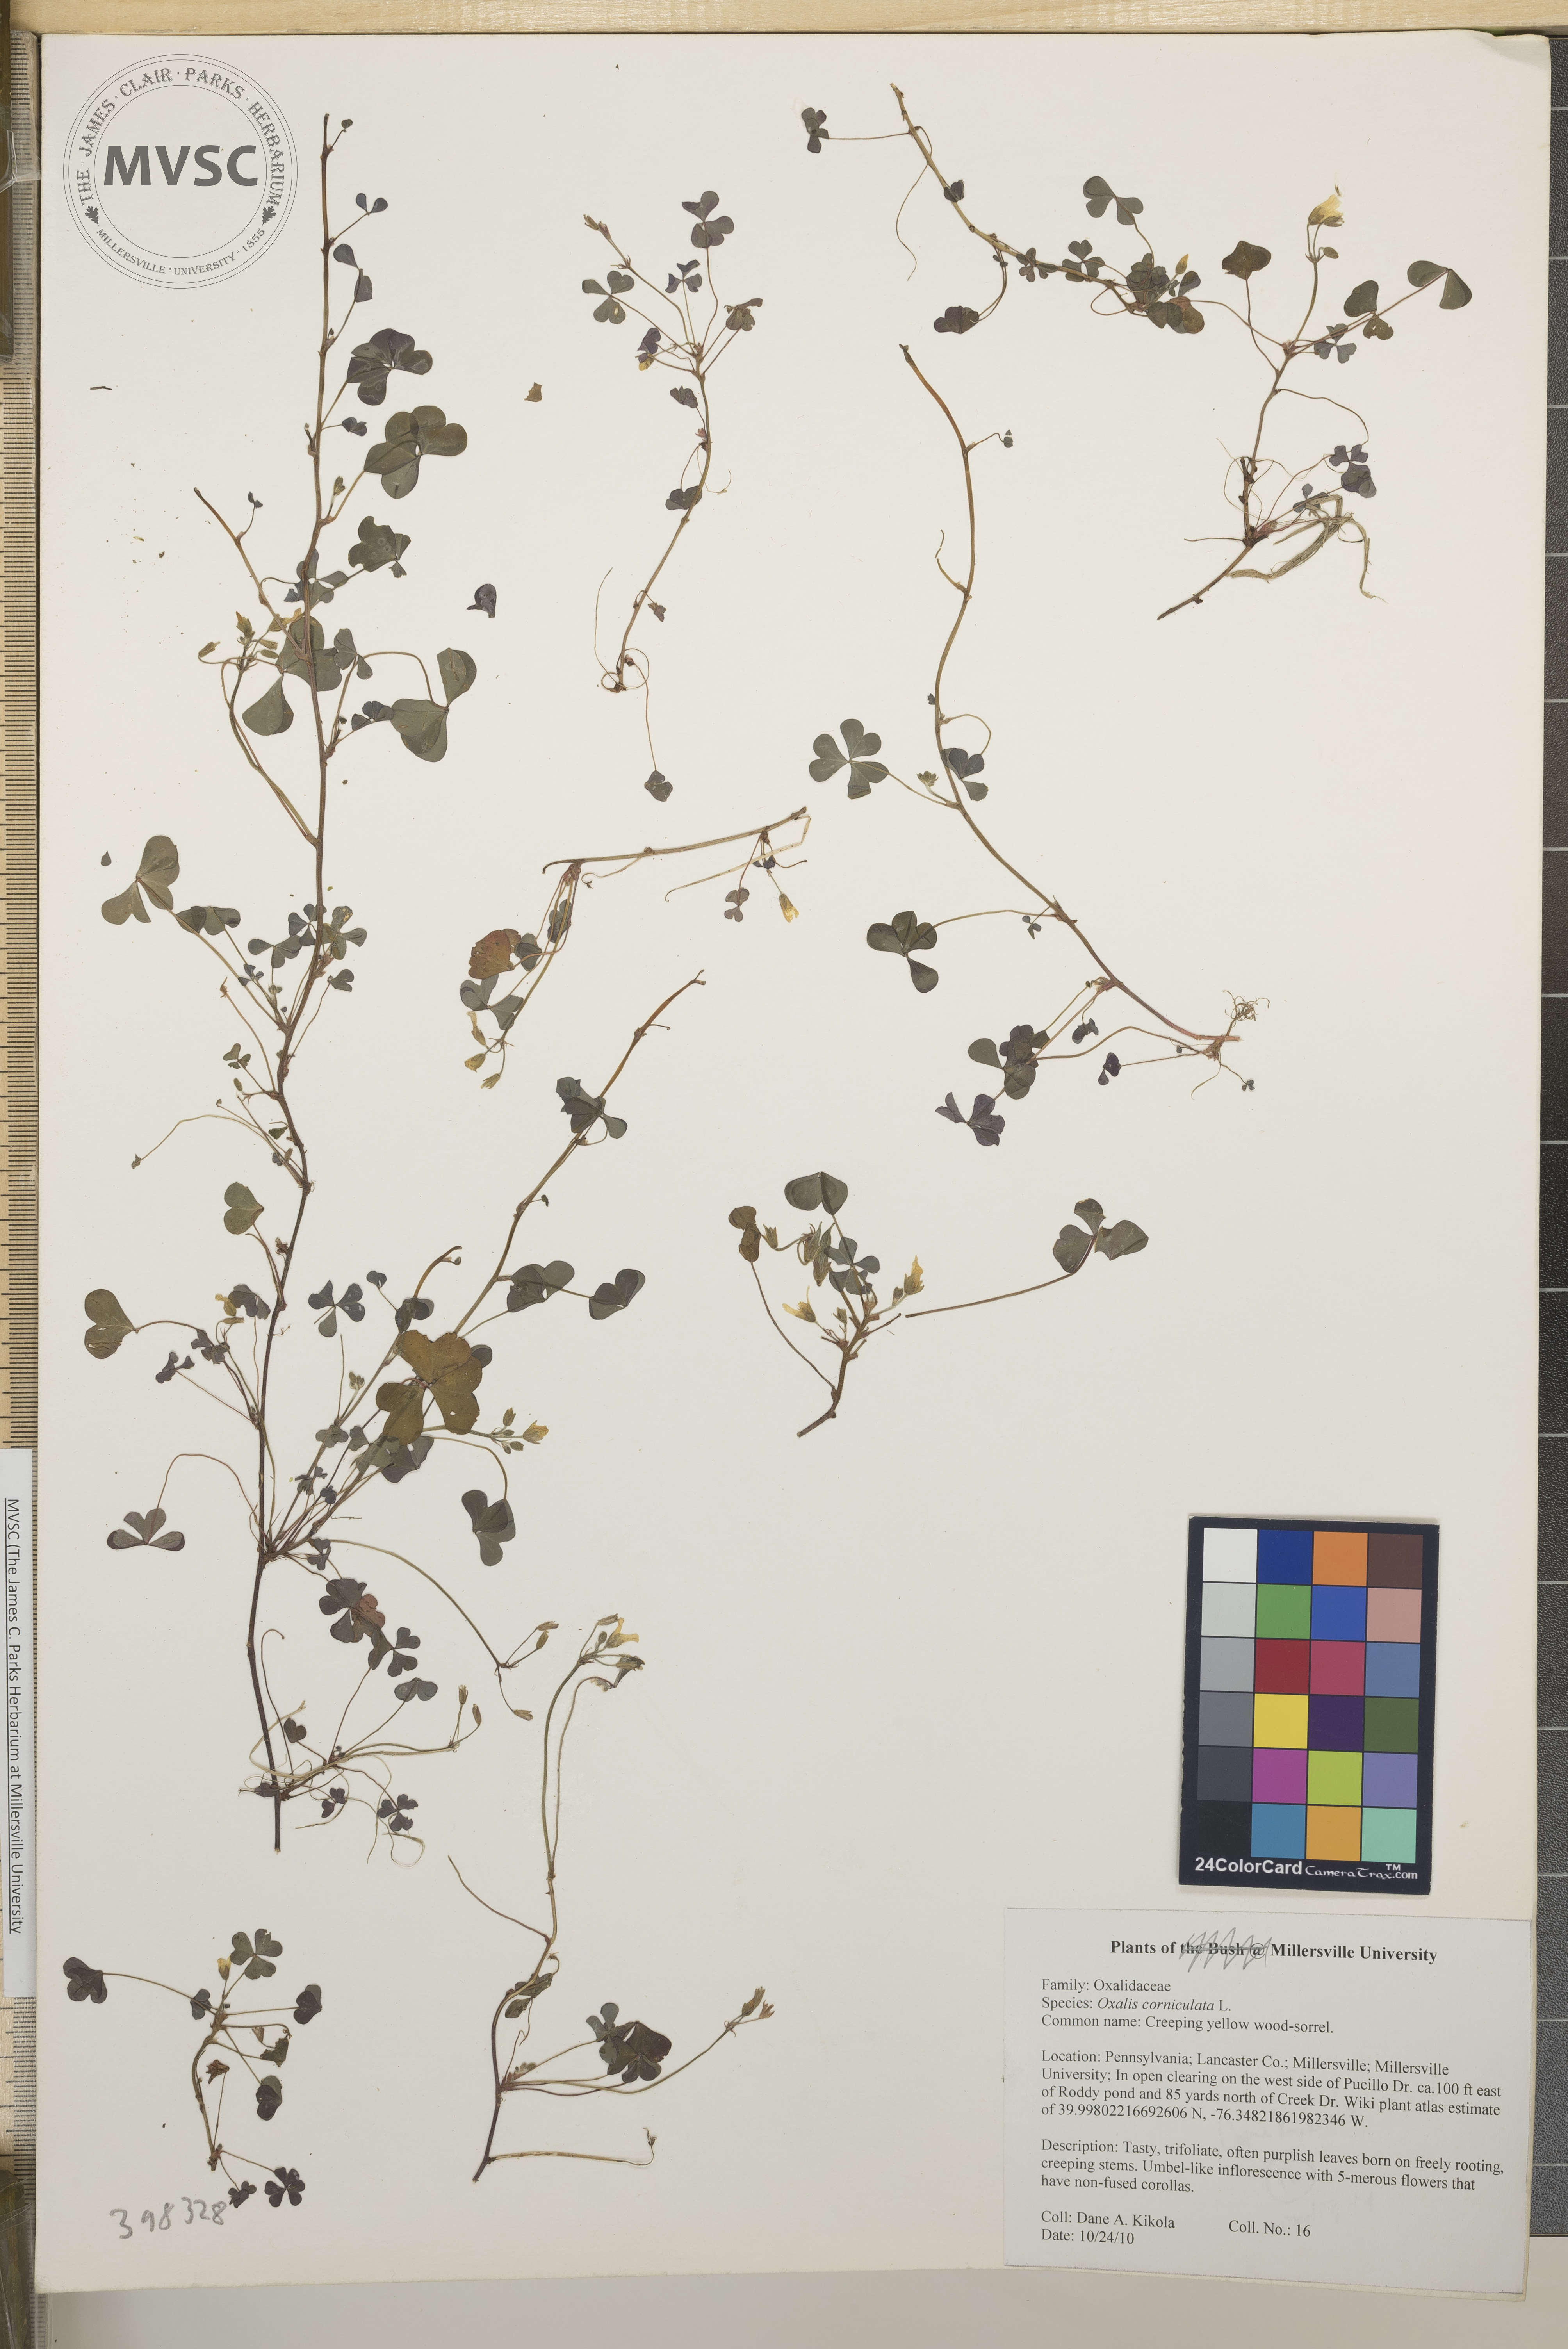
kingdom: Plantae
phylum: Tracheophyta
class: Magnoliopsida
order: Oxalidales
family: Oxalidaceae
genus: Oxalis
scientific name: Oxalis corniculata
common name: Creeping yellow wood-sorrel
